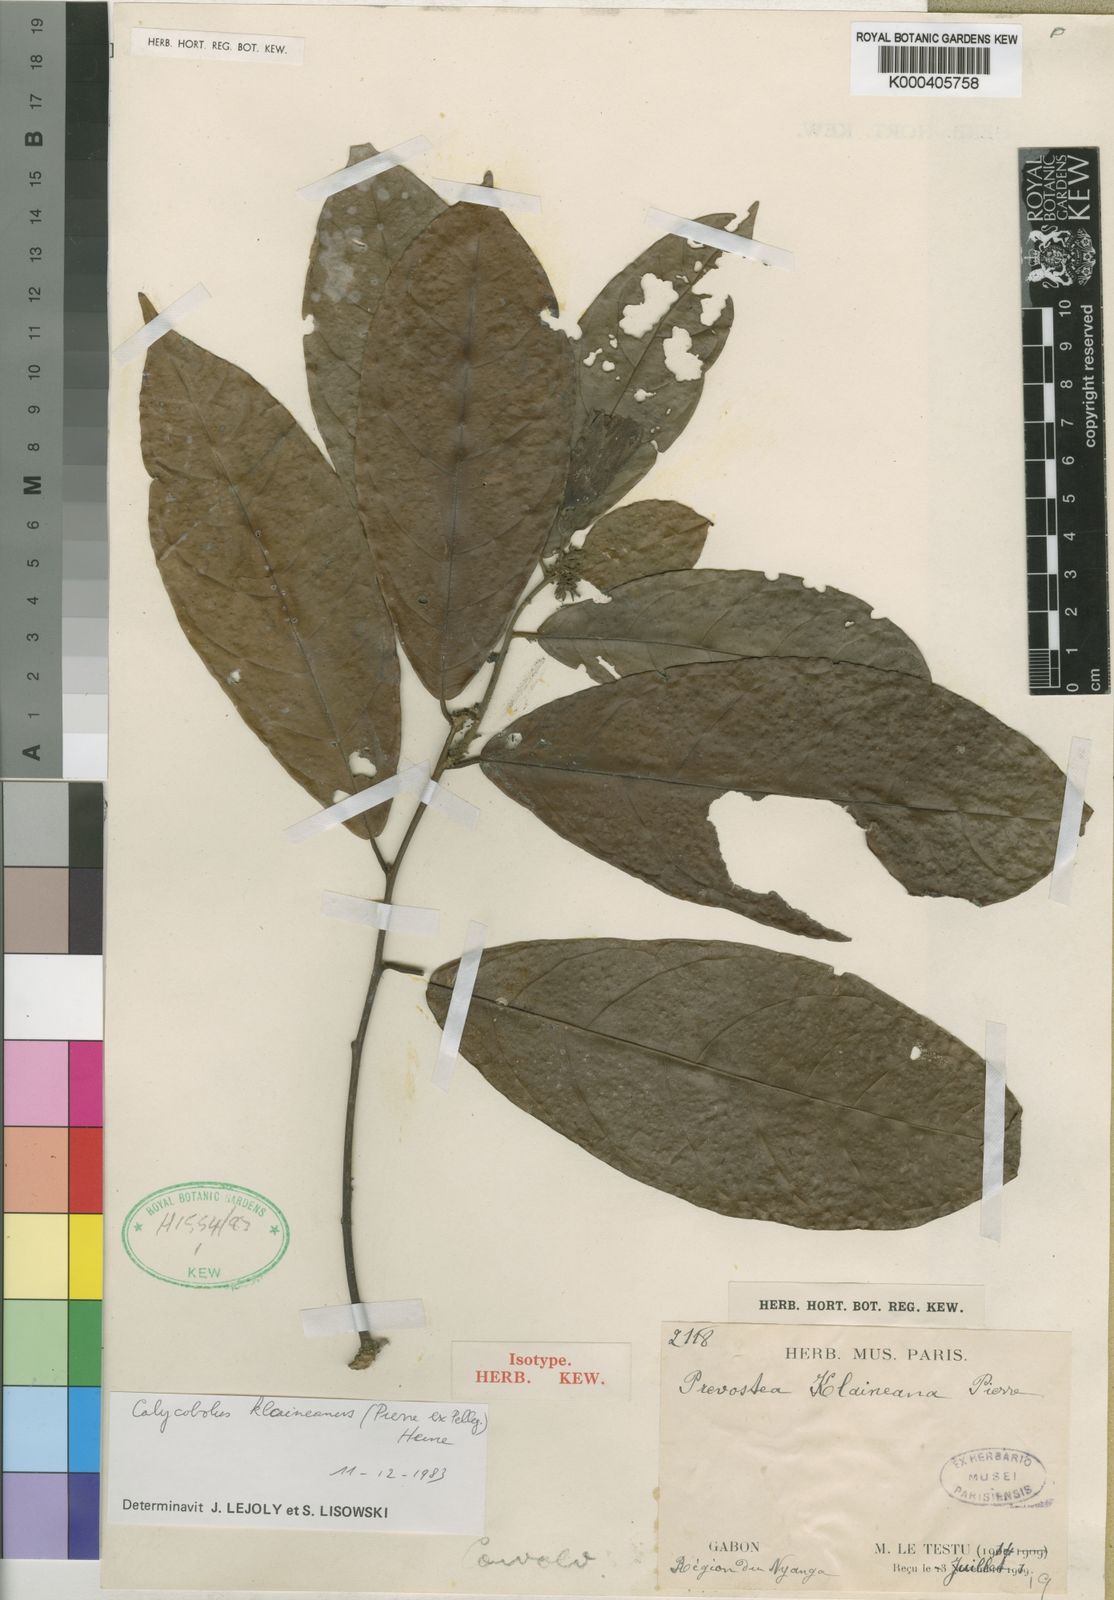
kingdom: Plantae
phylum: Tracheophyta
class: Magnoliopsida
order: Solanales
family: Convolvulaceae
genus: Calycobolus
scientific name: Calycobolus acuminatus
